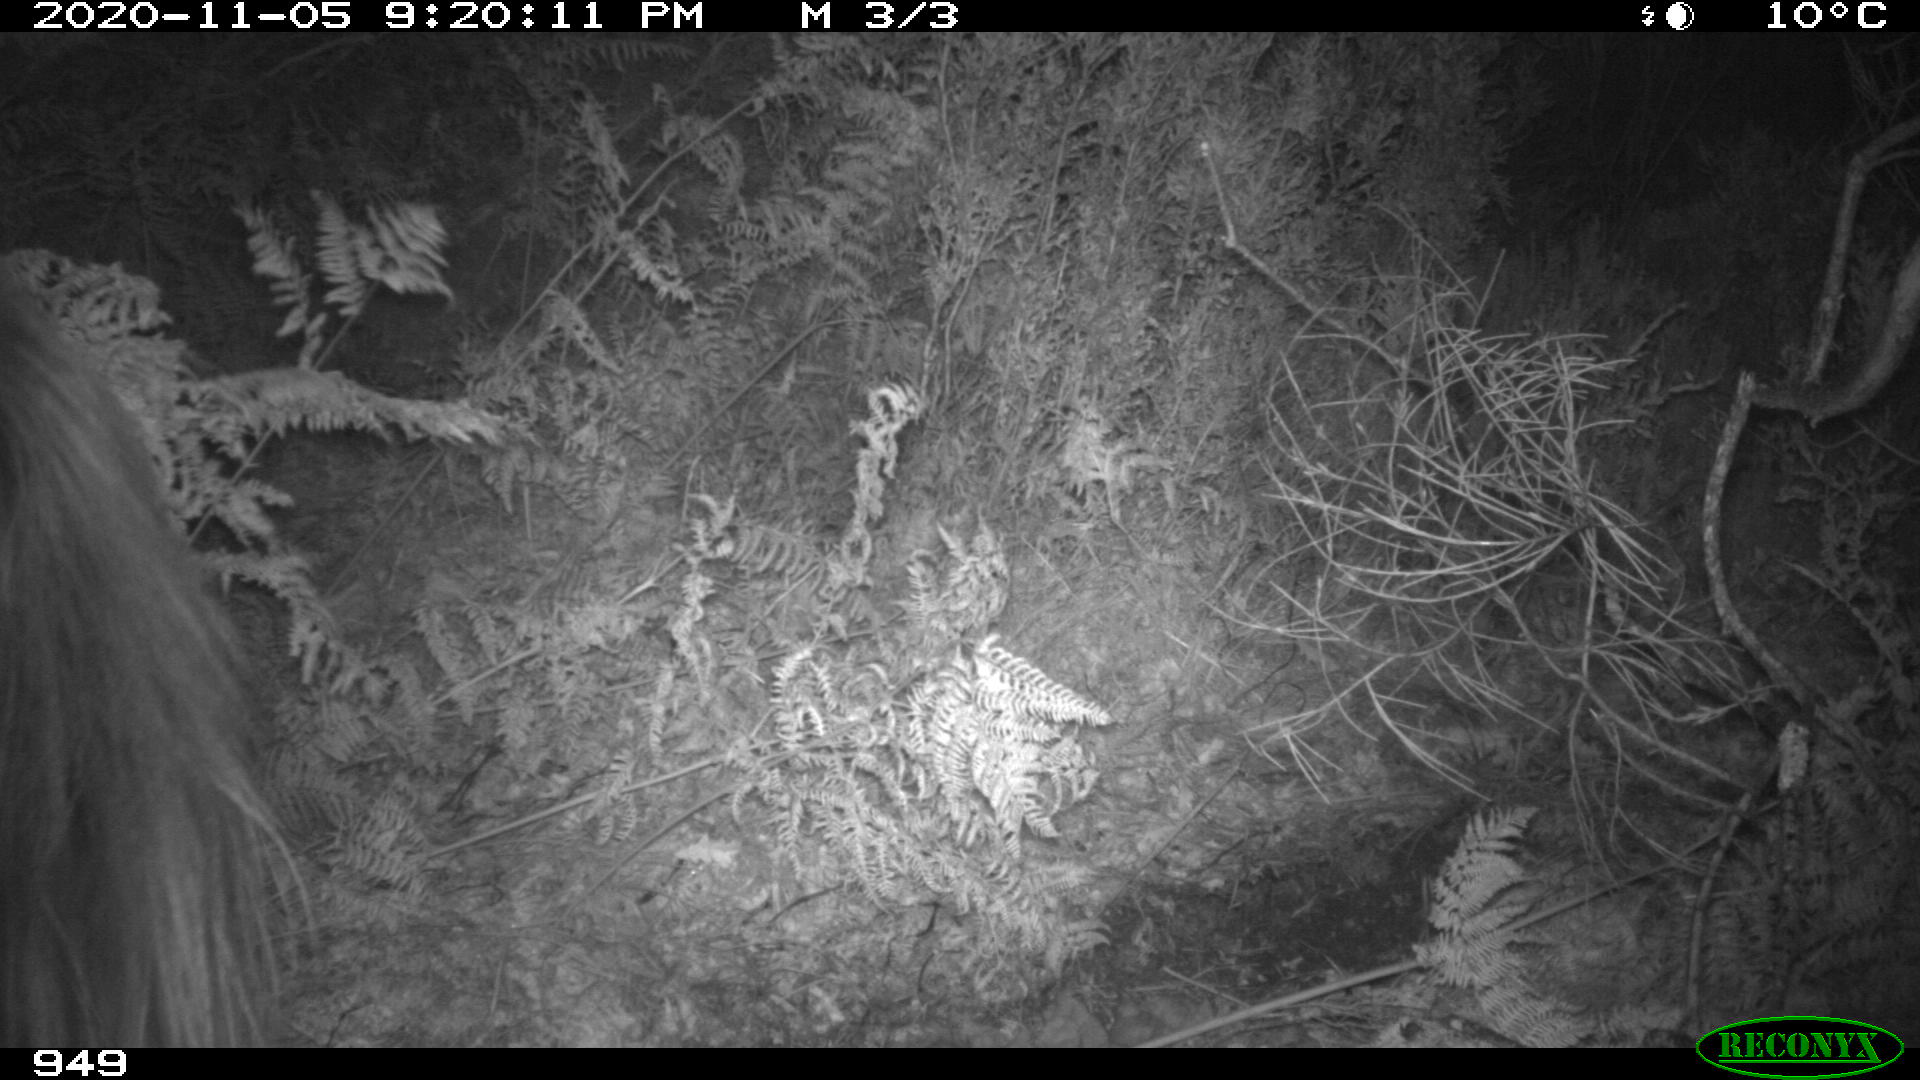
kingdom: Animalia
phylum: Chordata
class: Mammalia
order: Perissodactyla
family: Equidae
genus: Equus
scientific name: Equus caballus
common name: Horse
